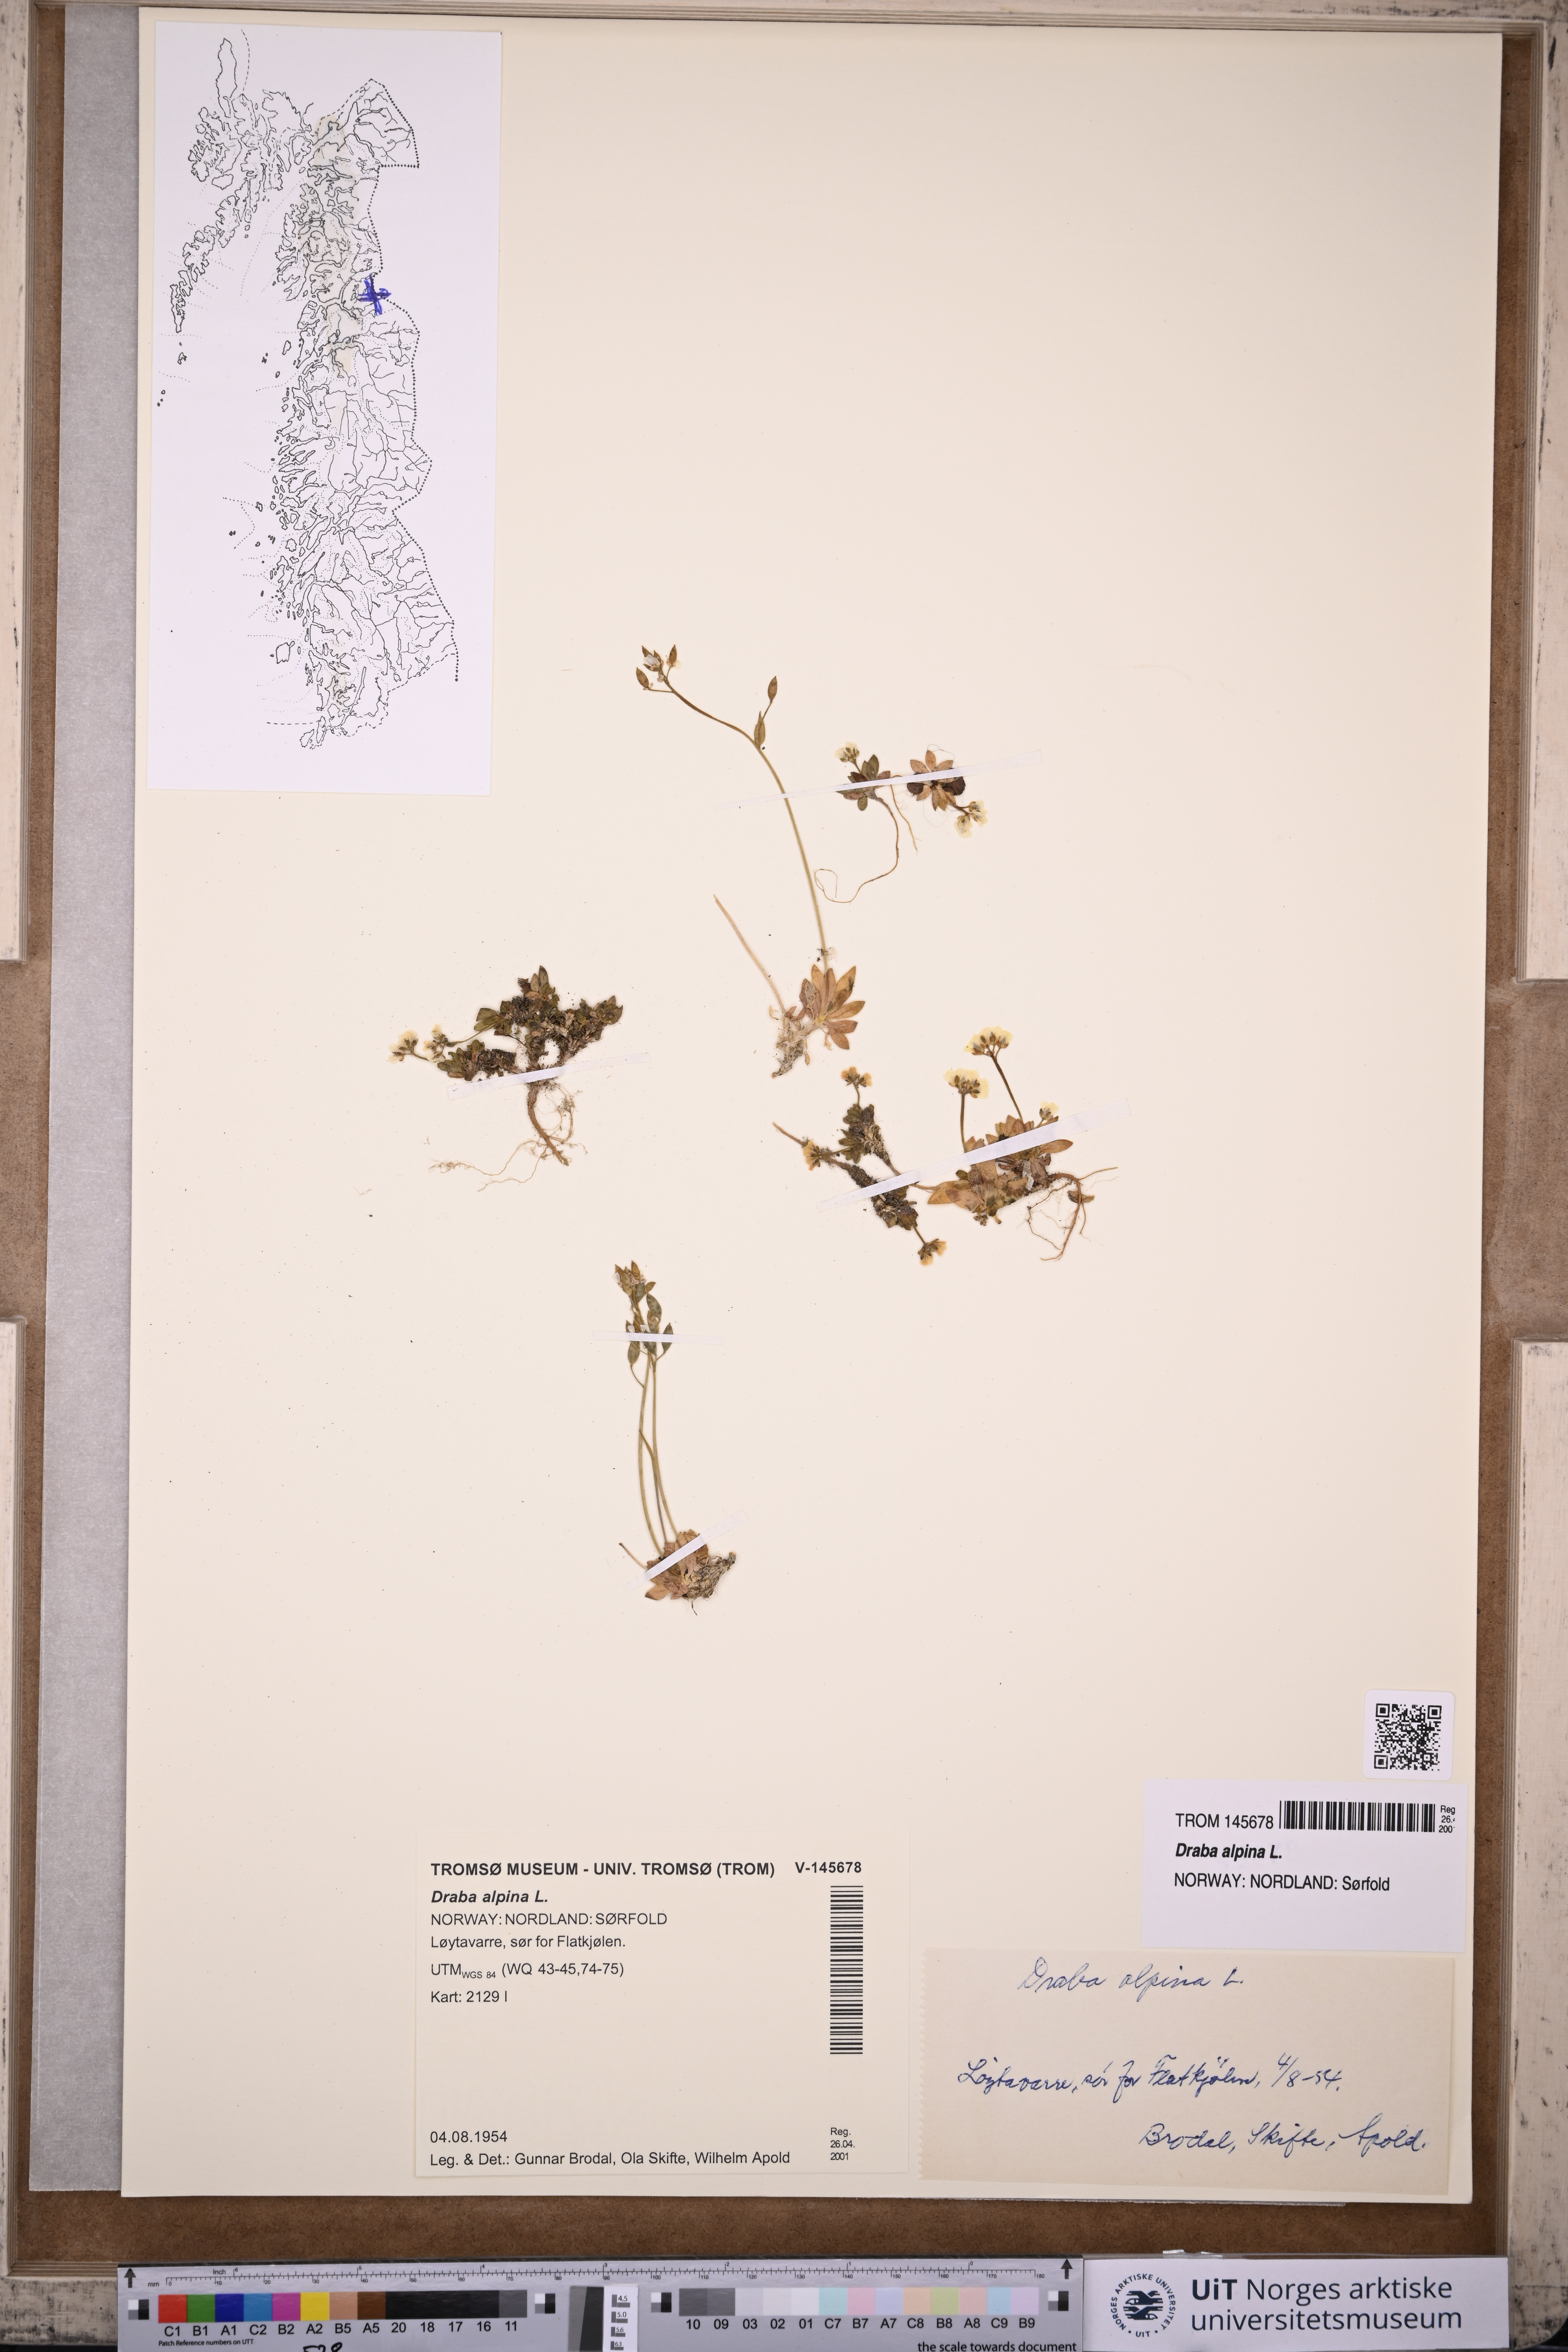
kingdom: Plantae
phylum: Tracheophyta
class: Magnoliopsida
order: Brassicales
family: Brassicaceae
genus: Draba
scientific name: Draba alpina
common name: Alpine draba
